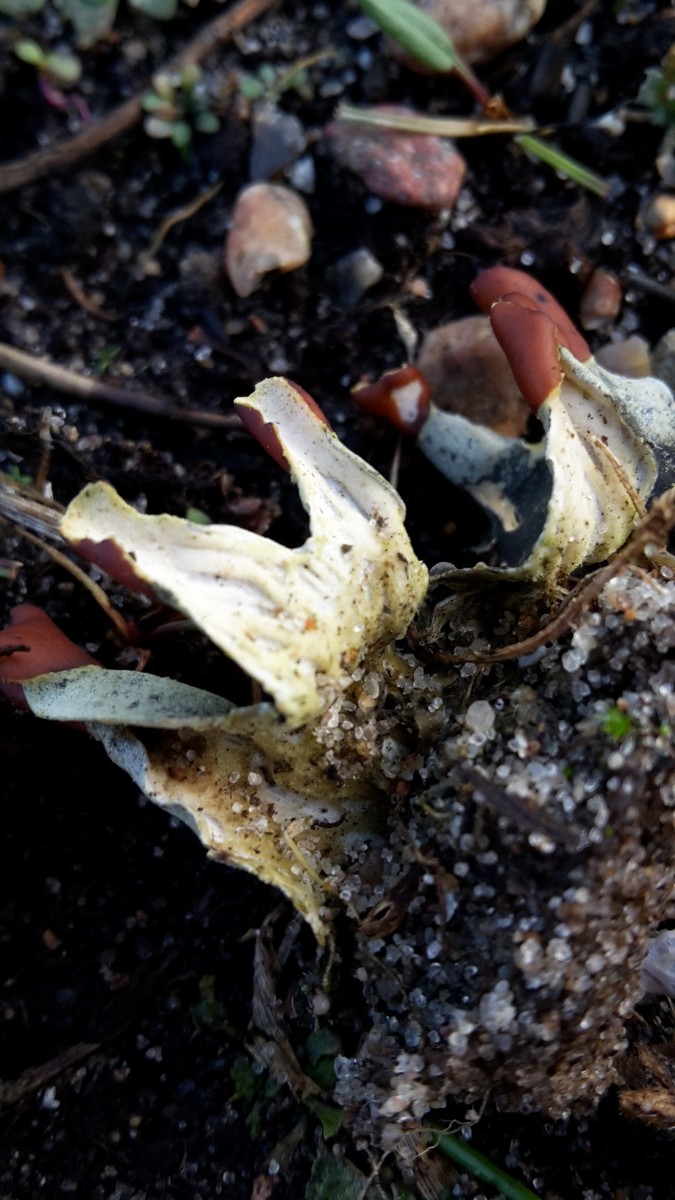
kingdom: Fungi
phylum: Ascomycota
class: Lecanoromycetes
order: Peltigerales
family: Peltigeraceae
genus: Peltigera
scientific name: Peltigera didactyla
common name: liden skjoldlav
